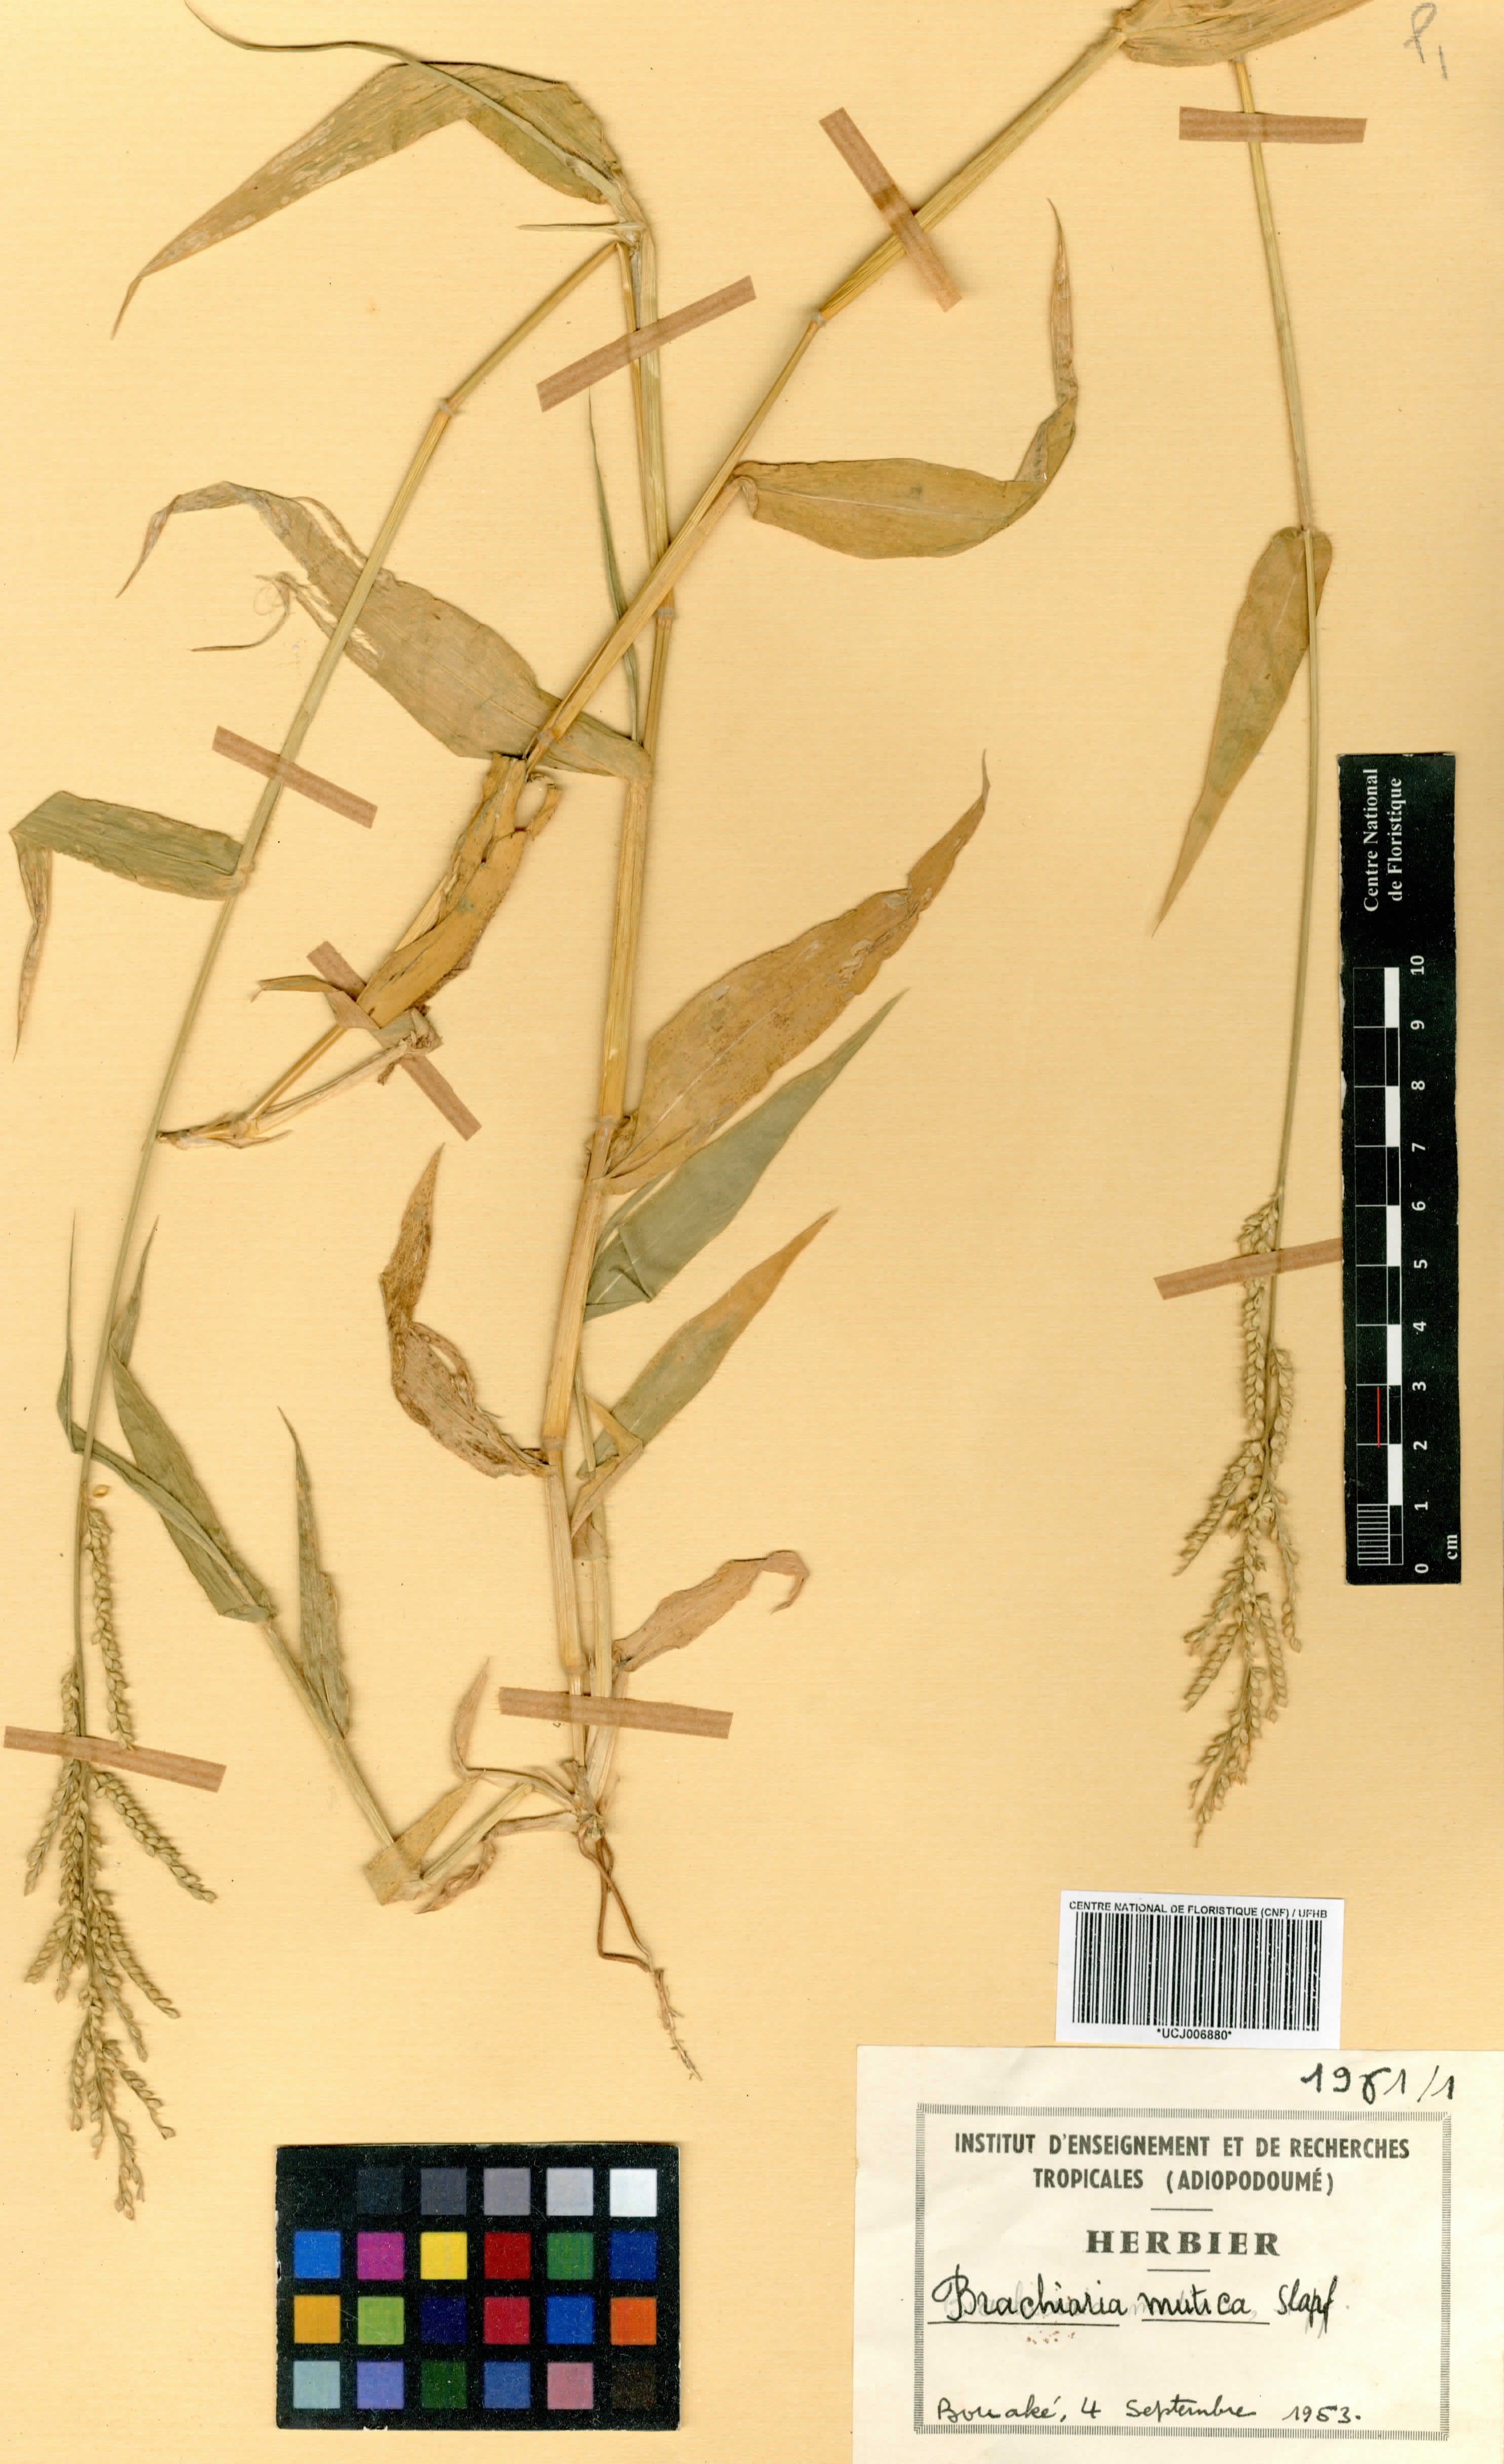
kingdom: Plantae
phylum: Tracheophyta
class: Liliopsida
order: Poales
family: Poaceae
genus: Urochloa
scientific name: Urochloa mutica
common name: Para grass
